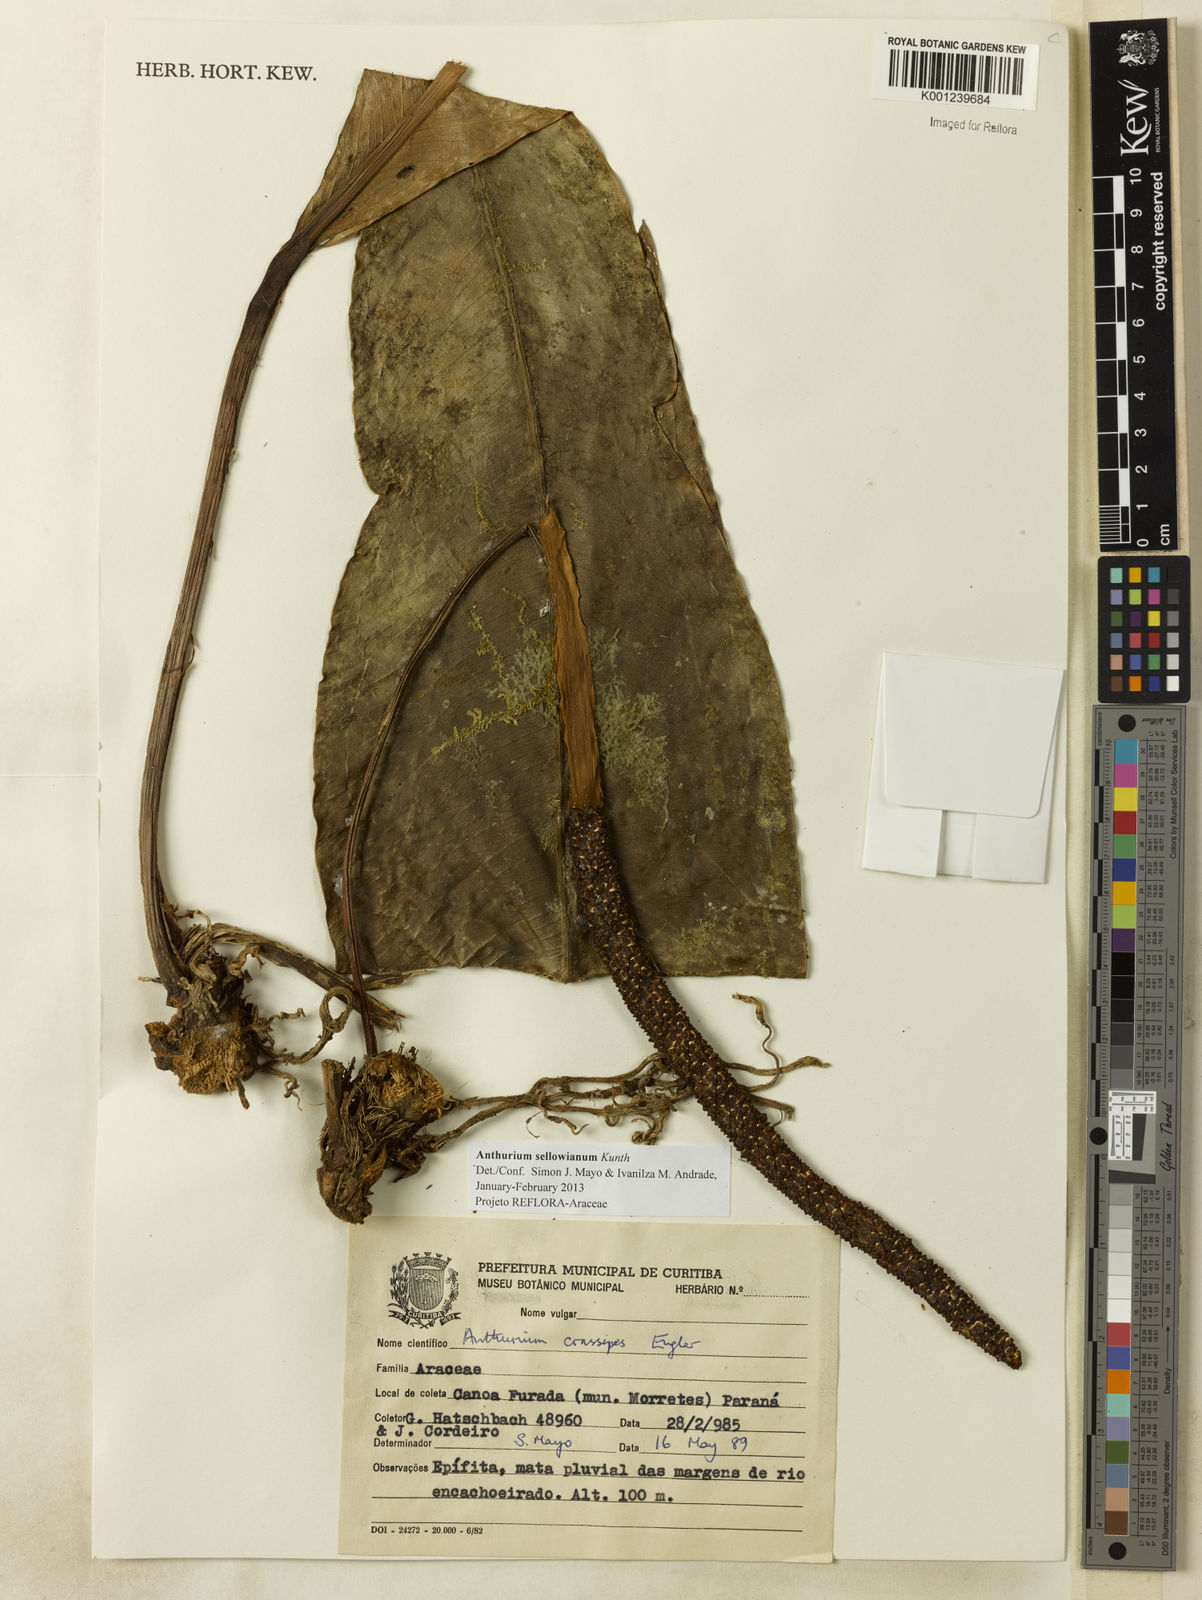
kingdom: Plantae
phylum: Tracheophyta
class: Liliopsida
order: Alismatales
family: Araceae
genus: Anthurium
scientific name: Anthurium sellowianum
